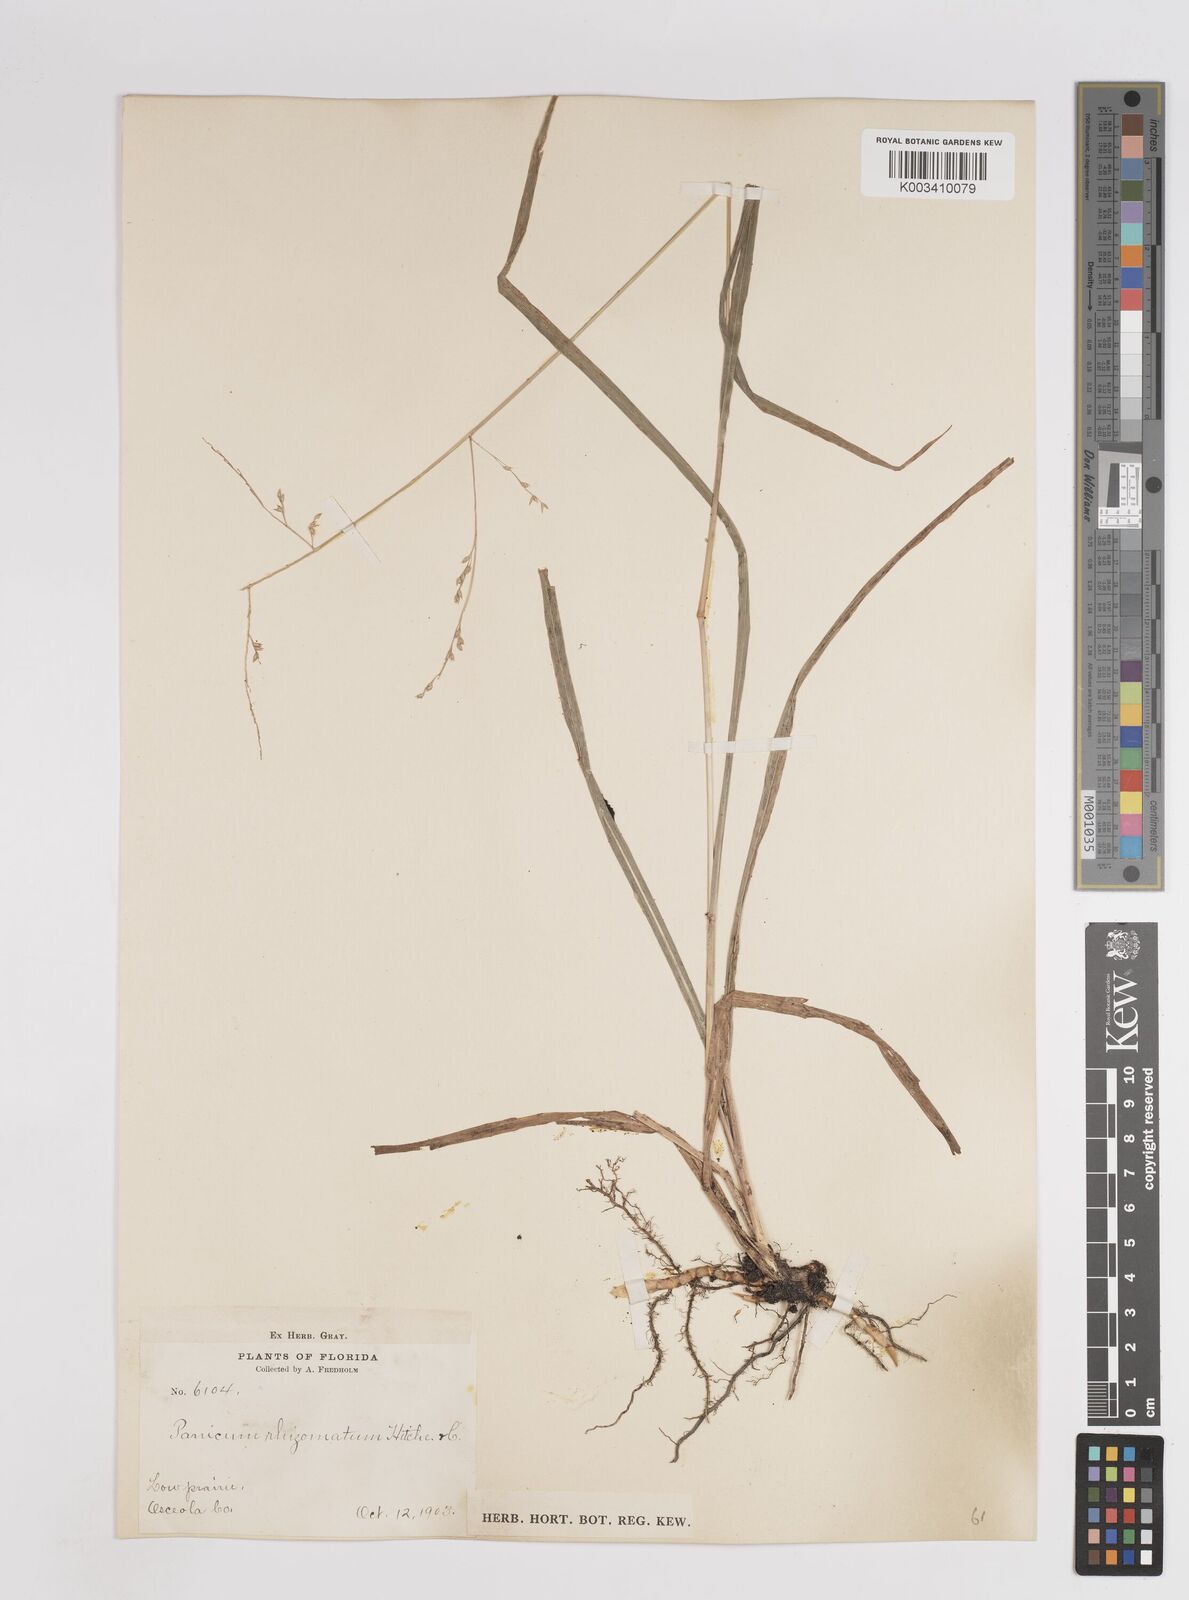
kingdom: Plantae
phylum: Tracheophyta
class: Liliopsida
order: Poales
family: Poaceae
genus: Coleataenia
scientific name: Coleataenia anceps
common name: Beaked panic grass
